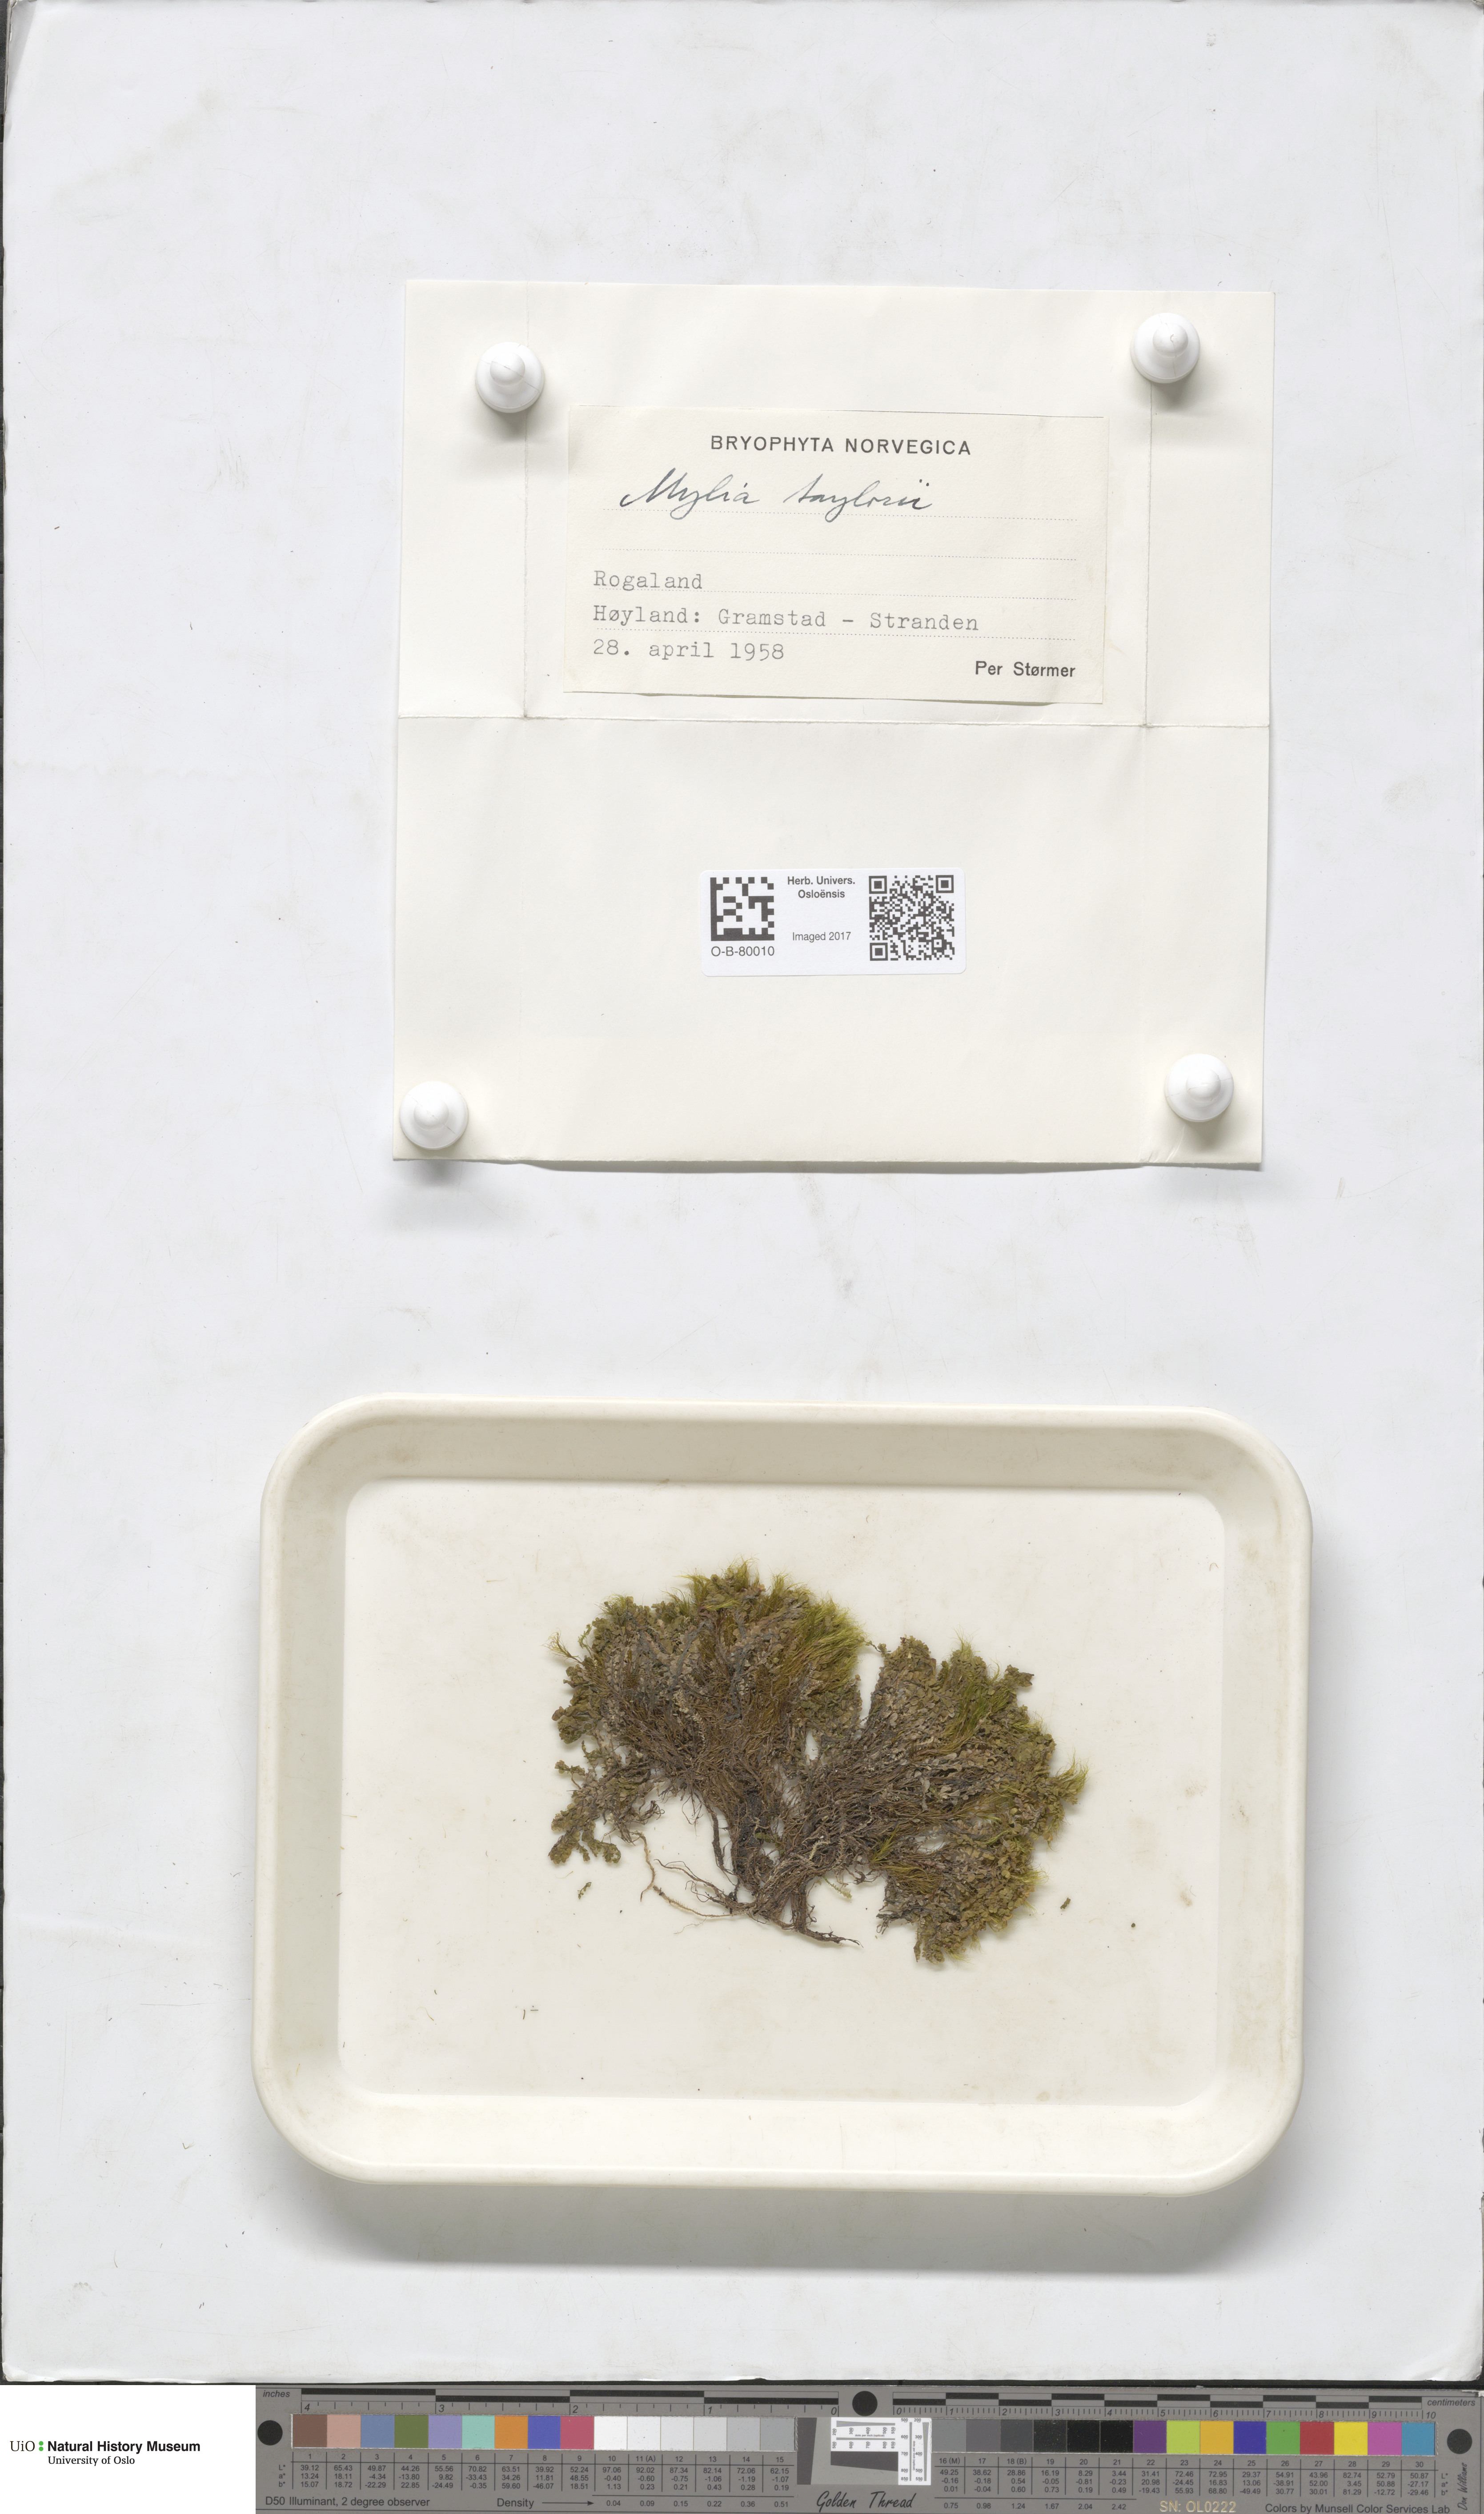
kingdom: Plantae
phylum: Marchantiophyta
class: Jungermanniopsida
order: Jungermanniales
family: Myliaceae
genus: Mylia
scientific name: Mylia taylorii
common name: Taylor s flapwort
